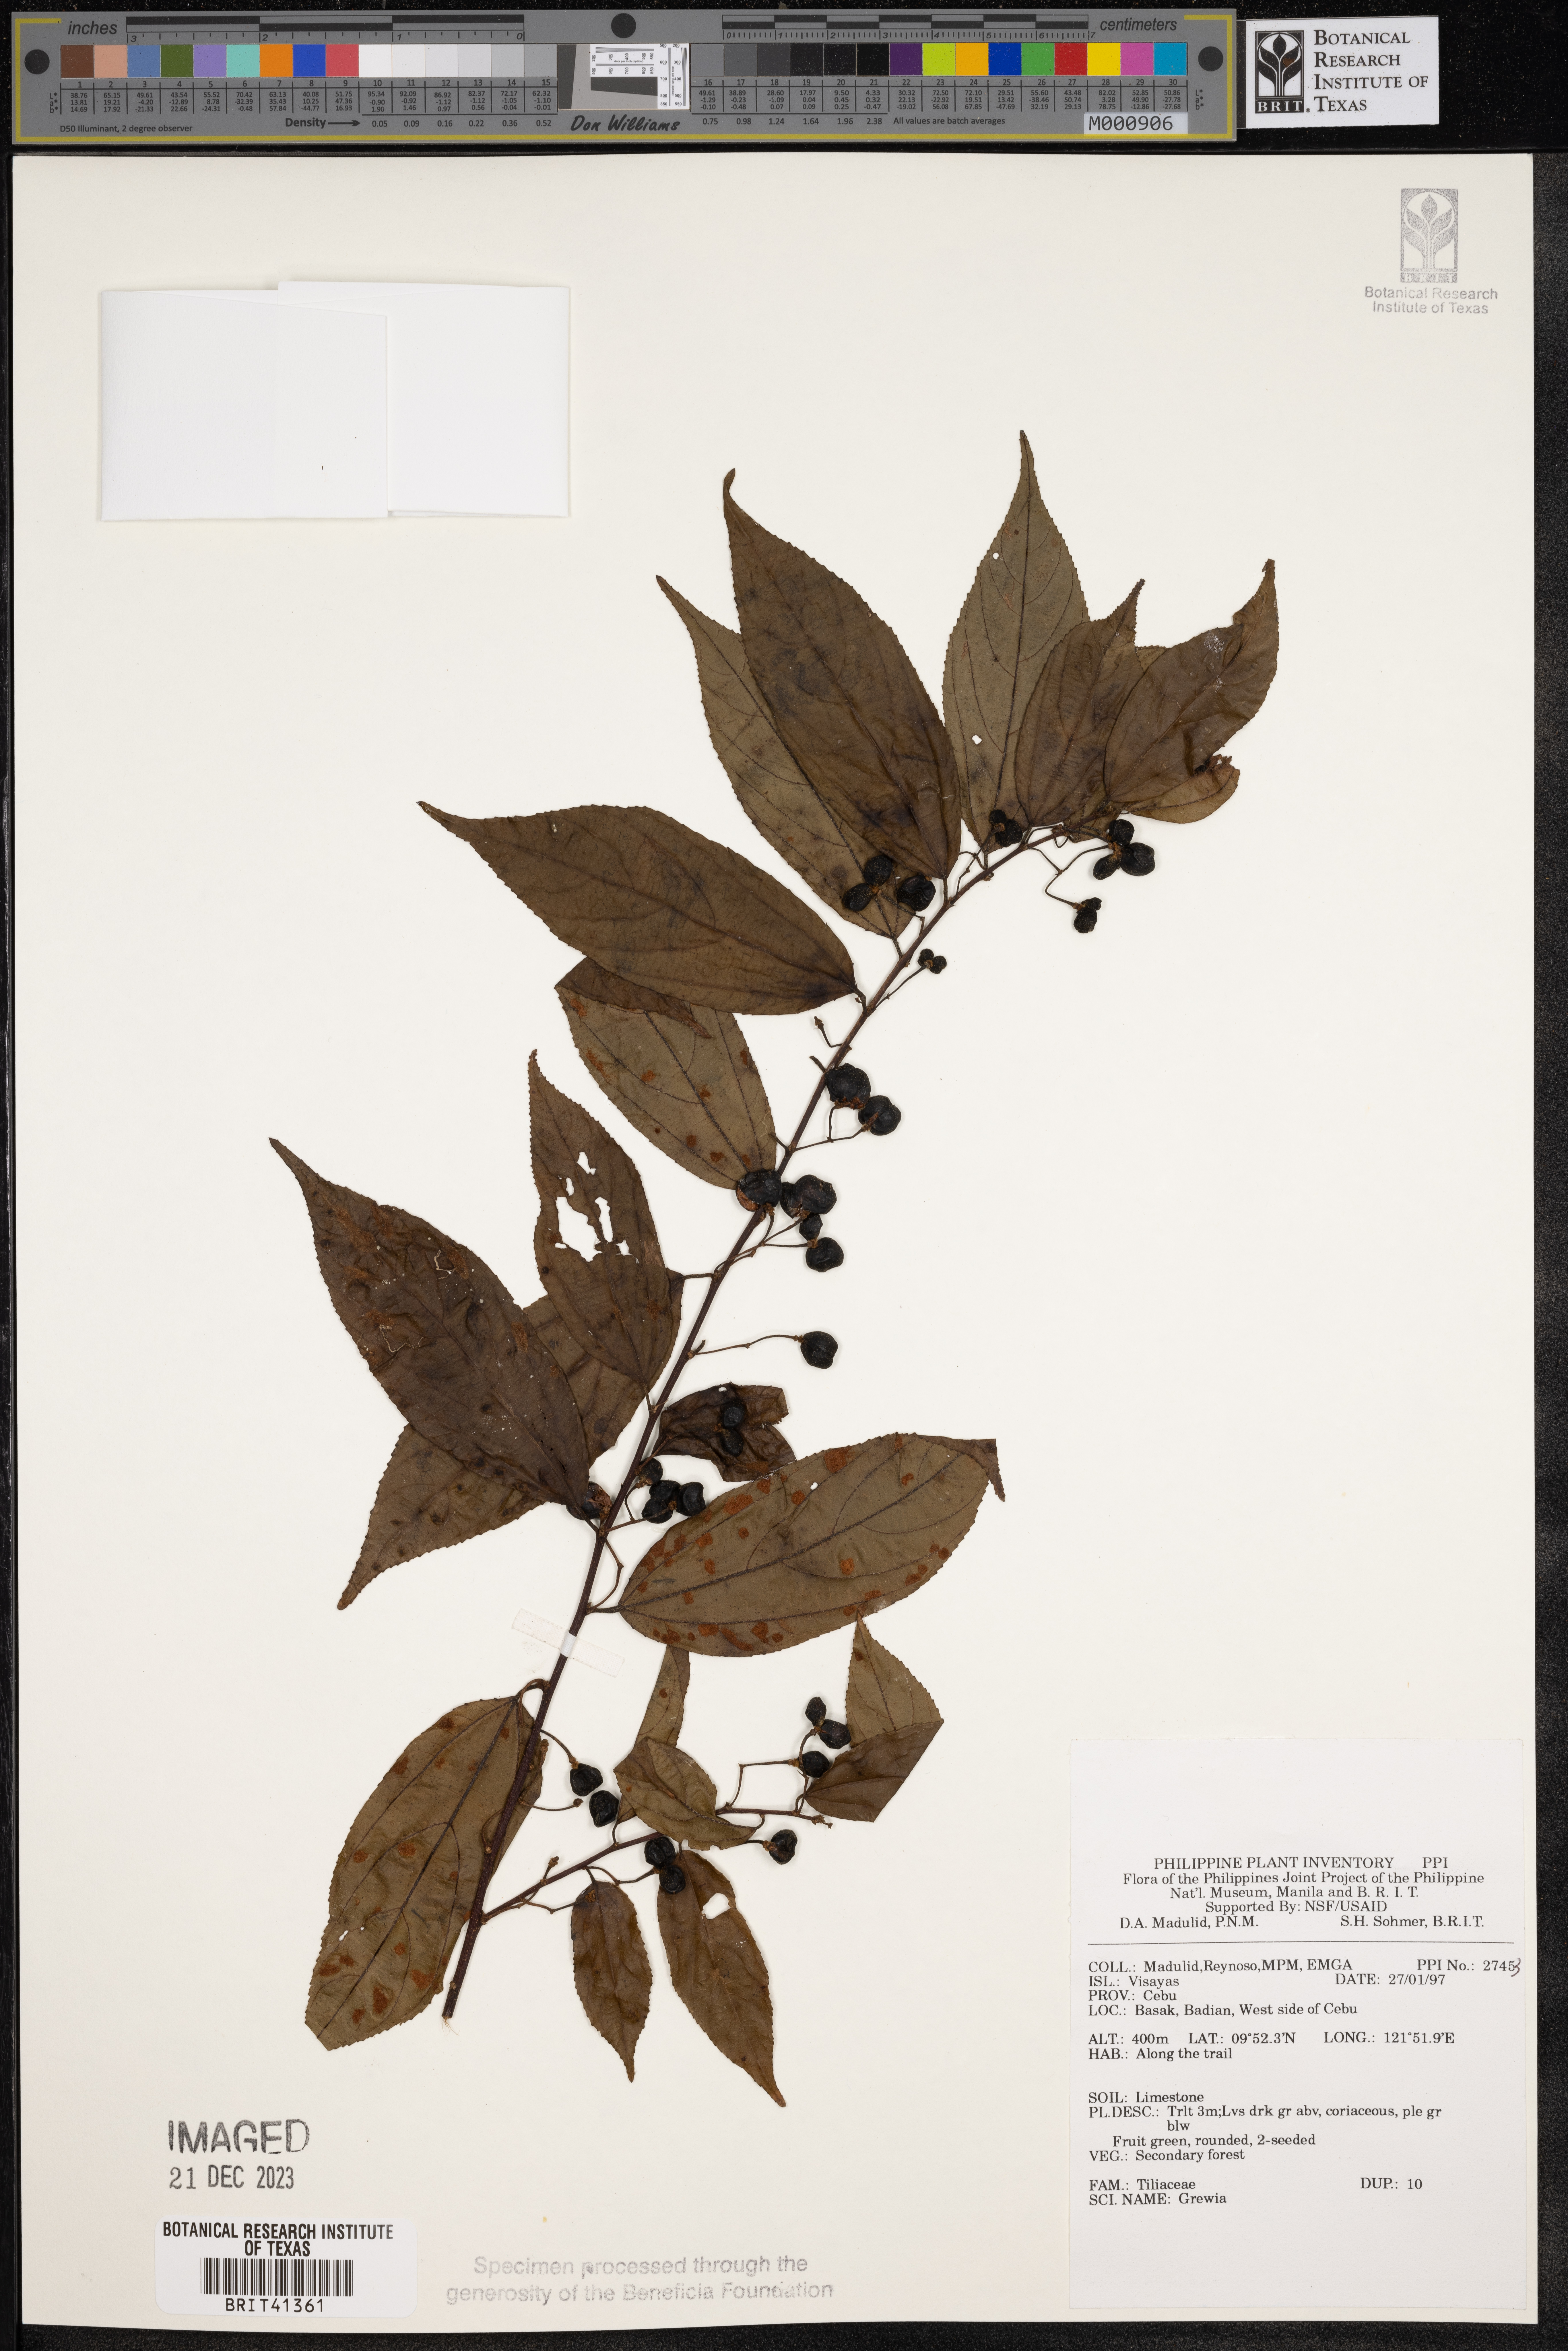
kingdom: Plantae
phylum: Tracheophyta
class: Magnoliopsida
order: Malvales
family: Malvaceae
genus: Grewia
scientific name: Grewia
